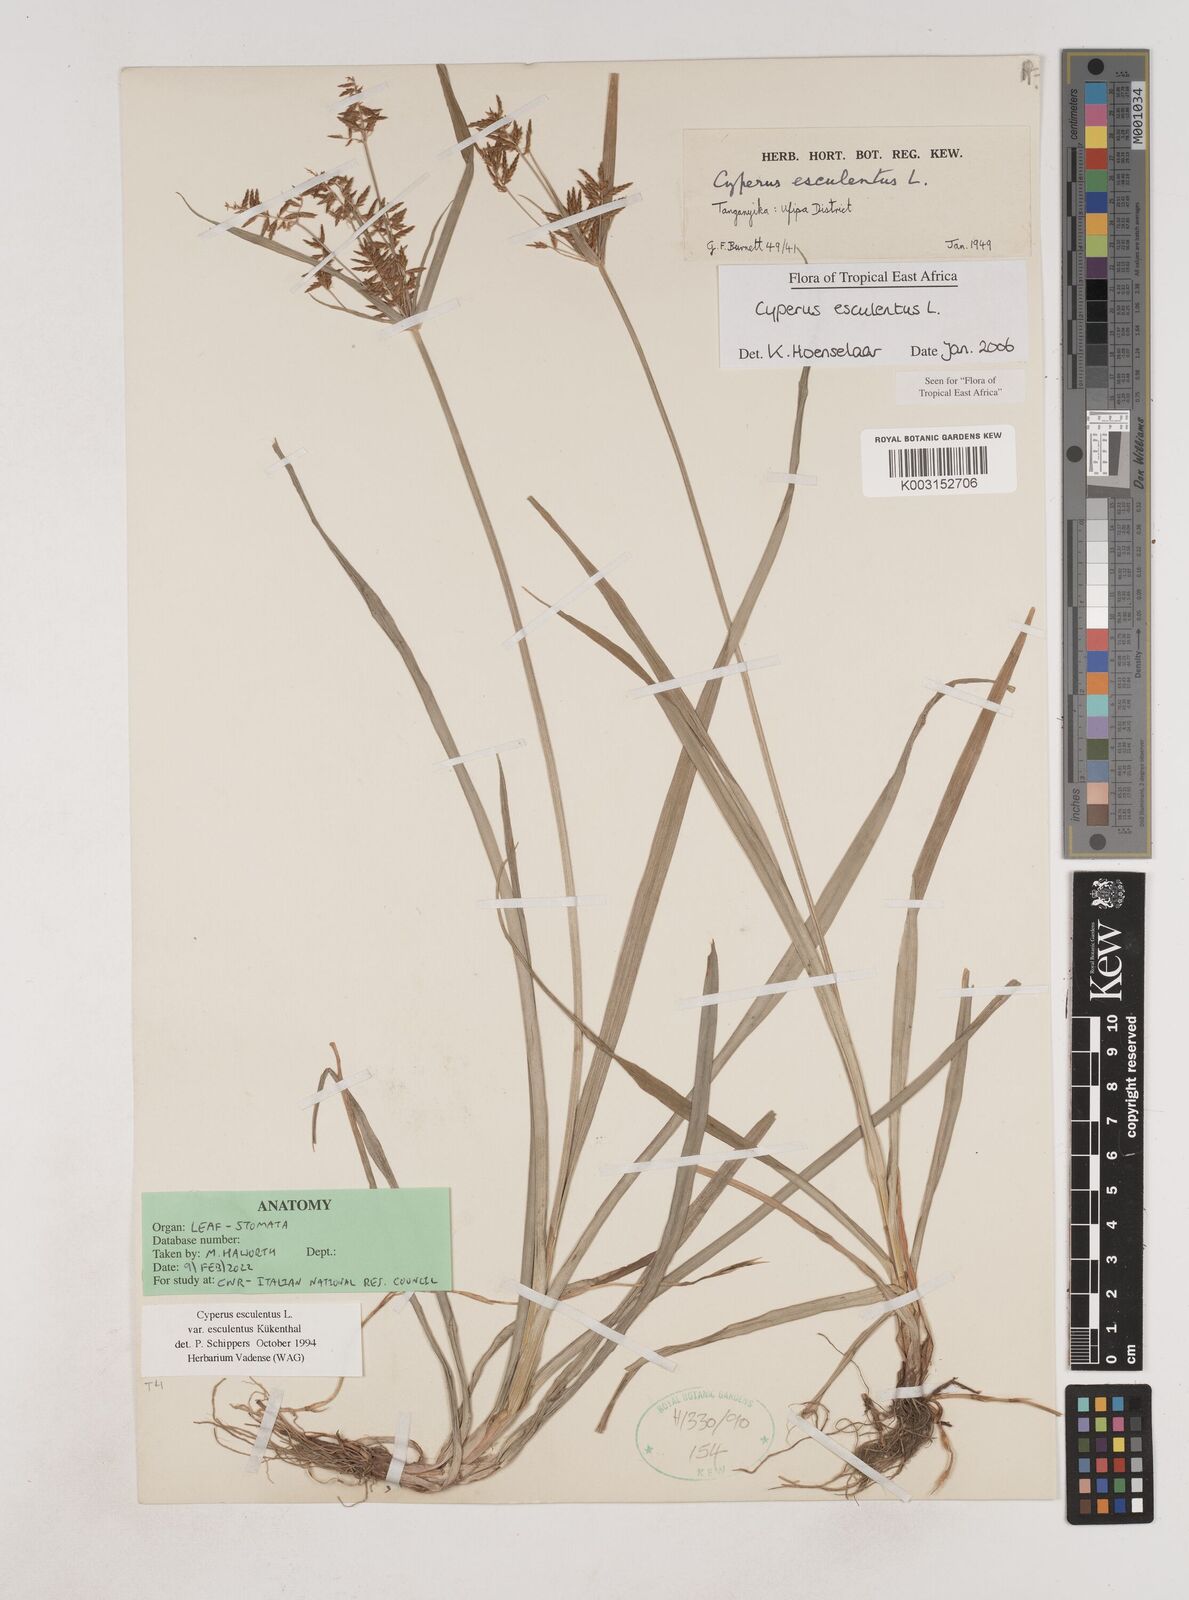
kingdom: Plantae
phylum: Tracheophyta
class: Liliopsida
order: Poales
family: Cyperaceae
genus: Cyperus
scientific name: Cyperus esculentus
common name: Yellow nutsedge
